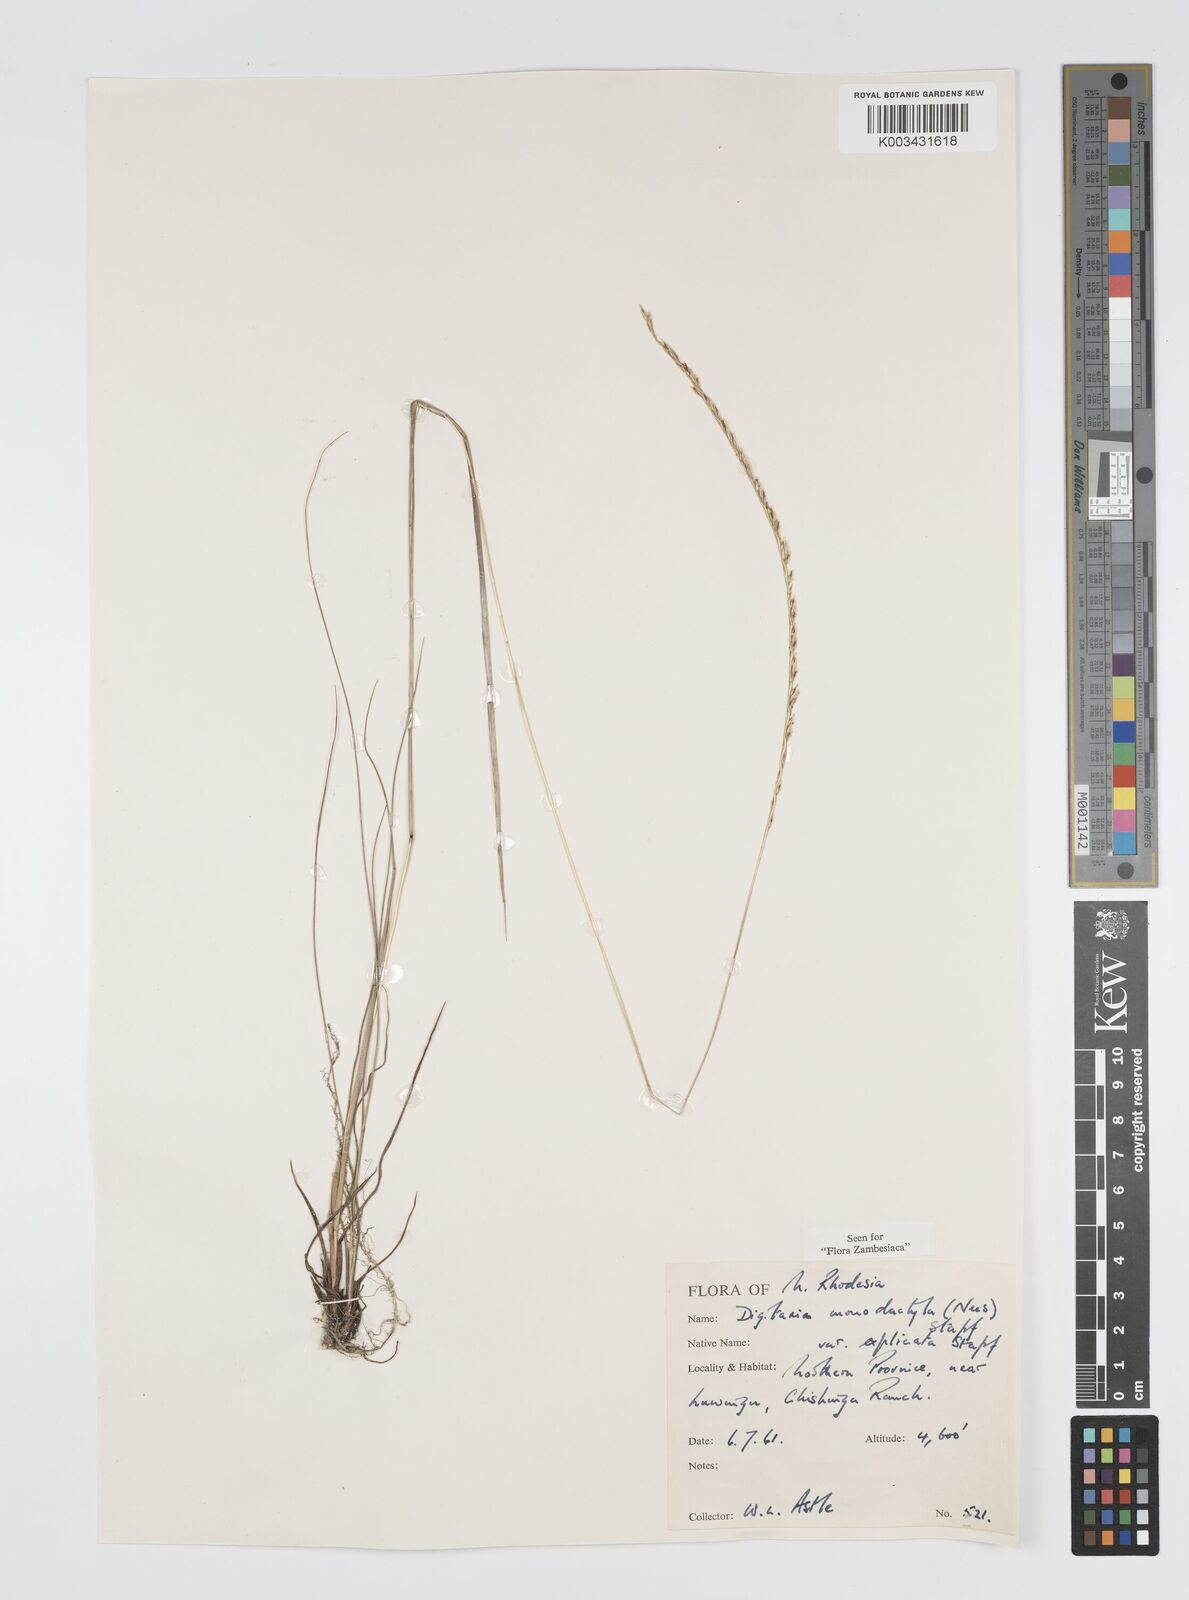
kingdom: Plantae
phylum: Tracheophyta
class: Liliopsida
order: Poales
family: Poaceae
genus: Digitaria
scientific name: Digitaria monodactyla
